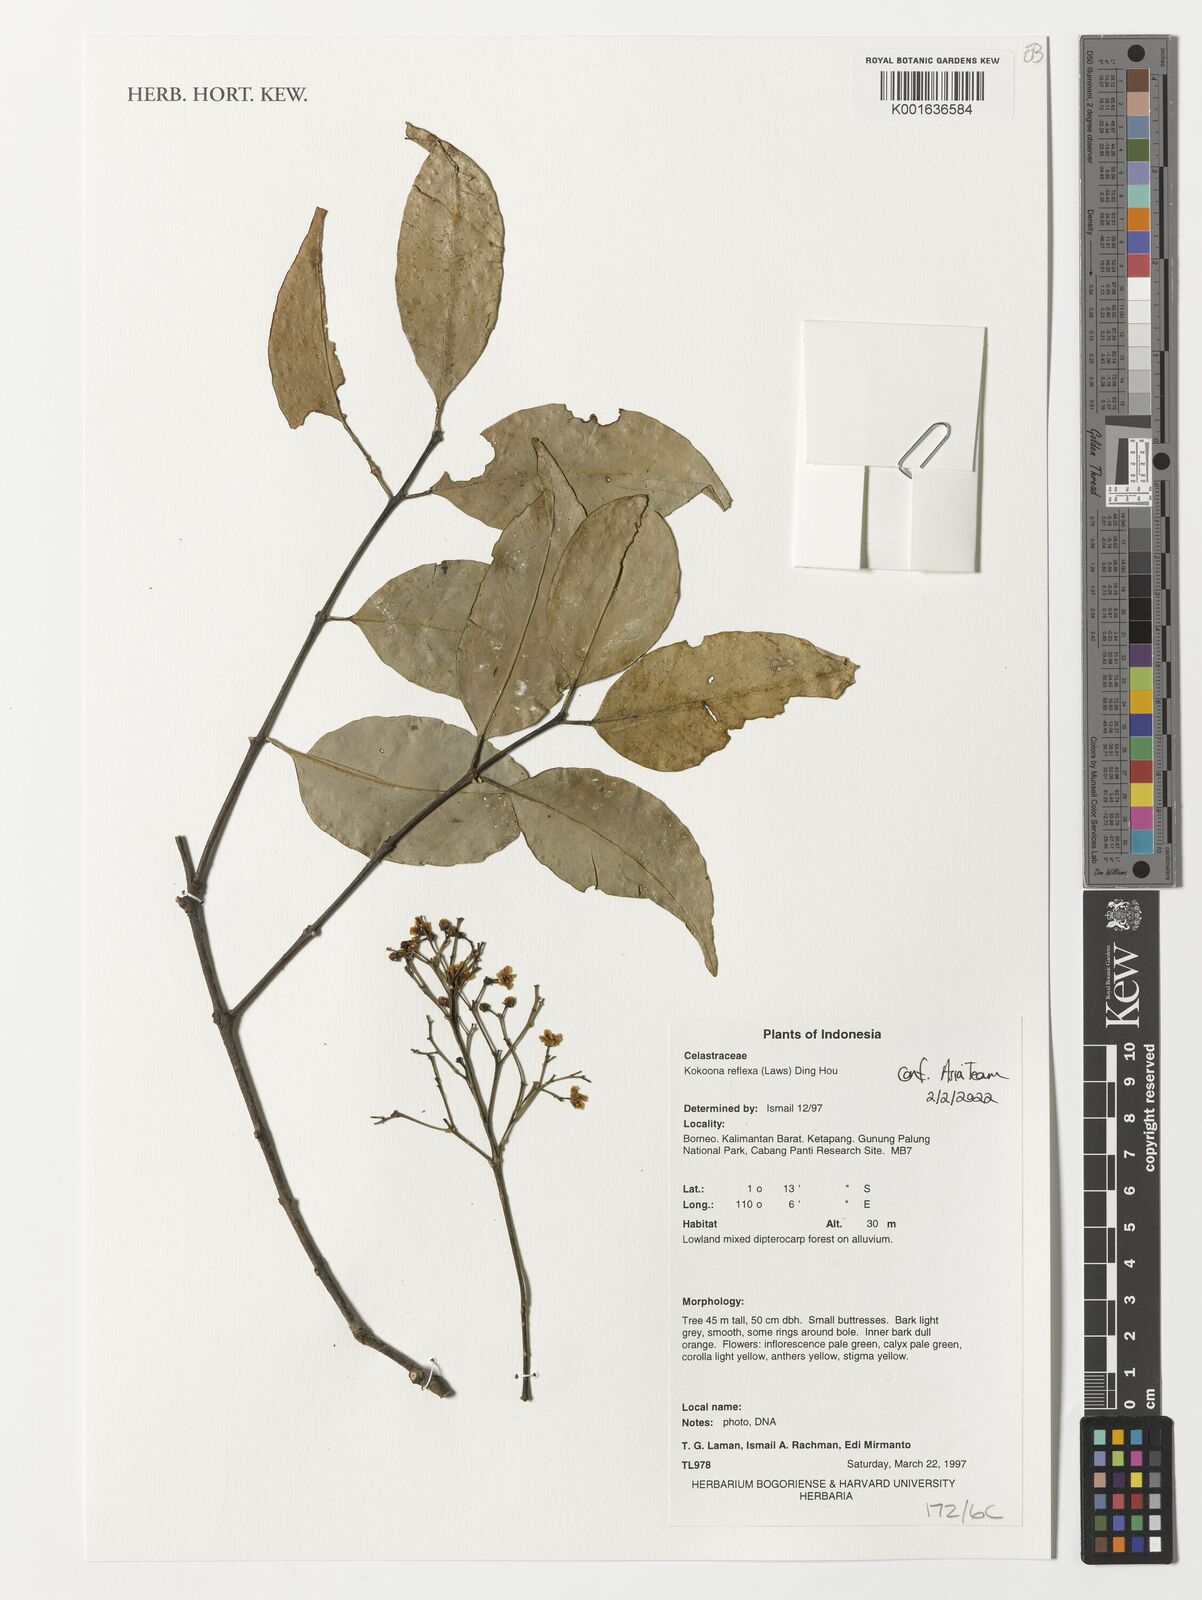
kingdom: Plantae
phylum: Tracheophyta
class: Magnoliopsida
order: Celastrales
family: Celastraceae
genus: Kokoona
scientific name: Kokoona reflexa
